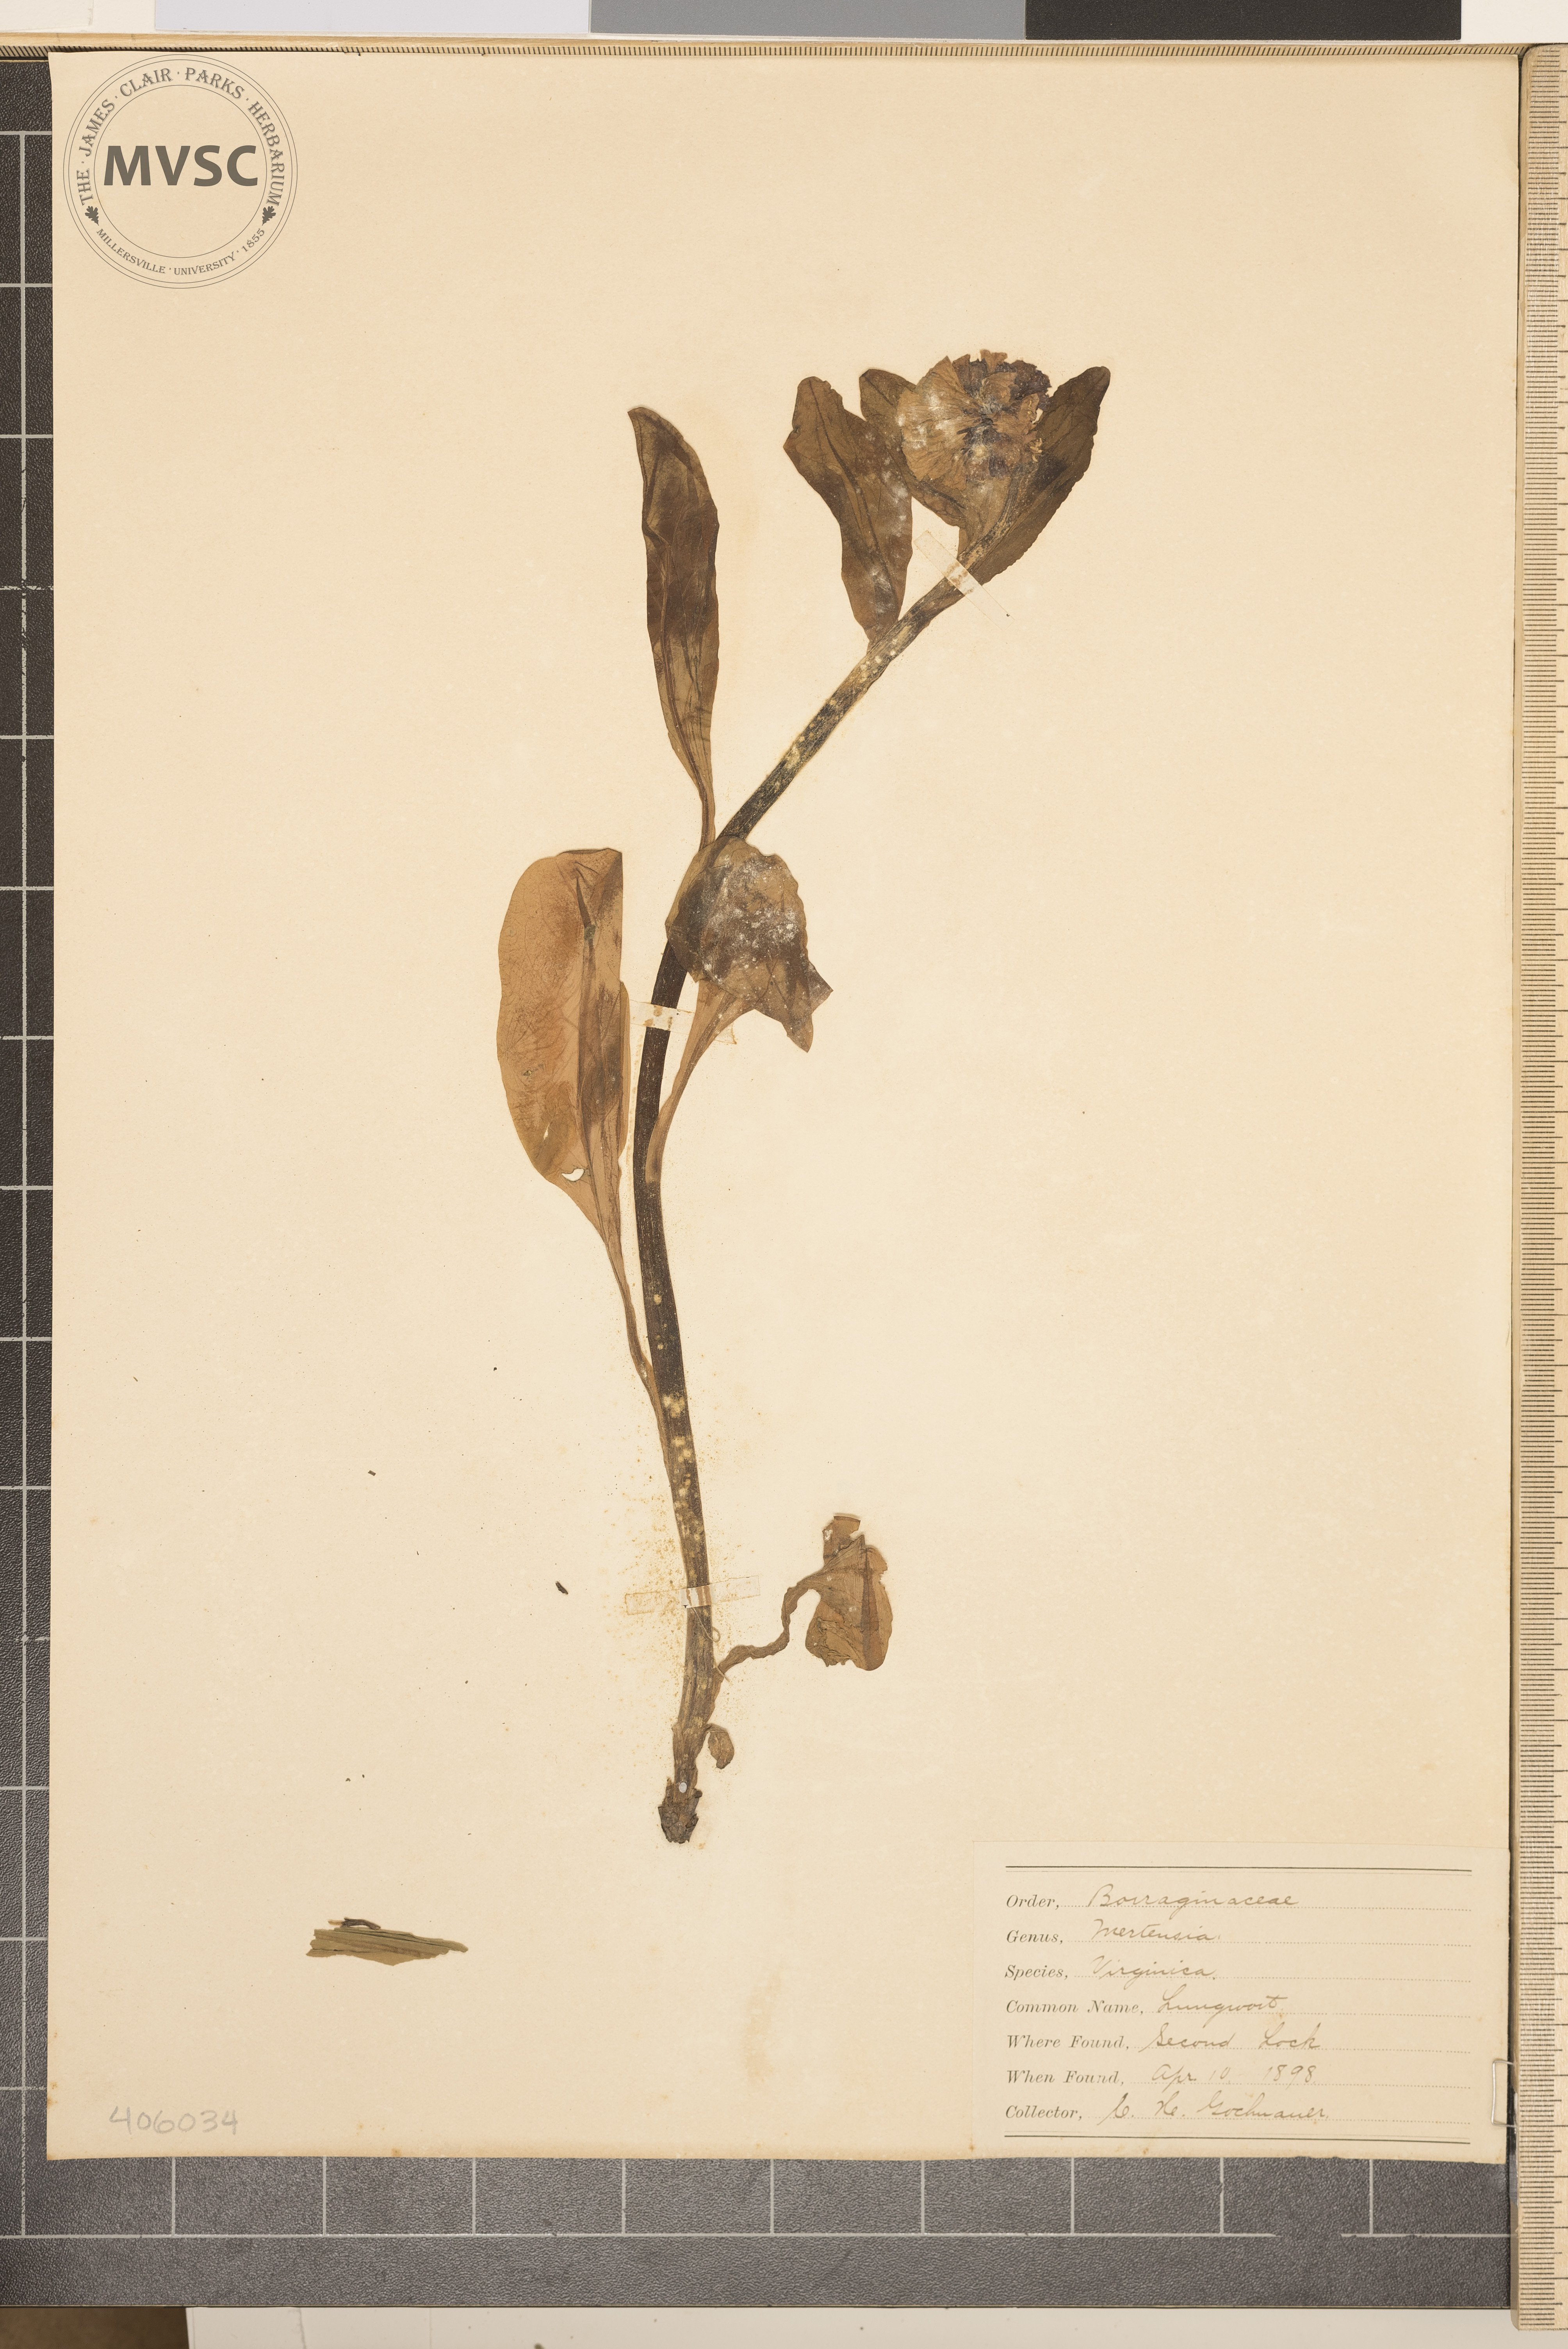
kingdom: Plantae
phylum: Tracheophyta
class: Magnoliopsida
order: Boraginales
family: Boraginaceae
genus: Mertensia
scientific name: Mertensia virginica
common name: Virginia bluebells
